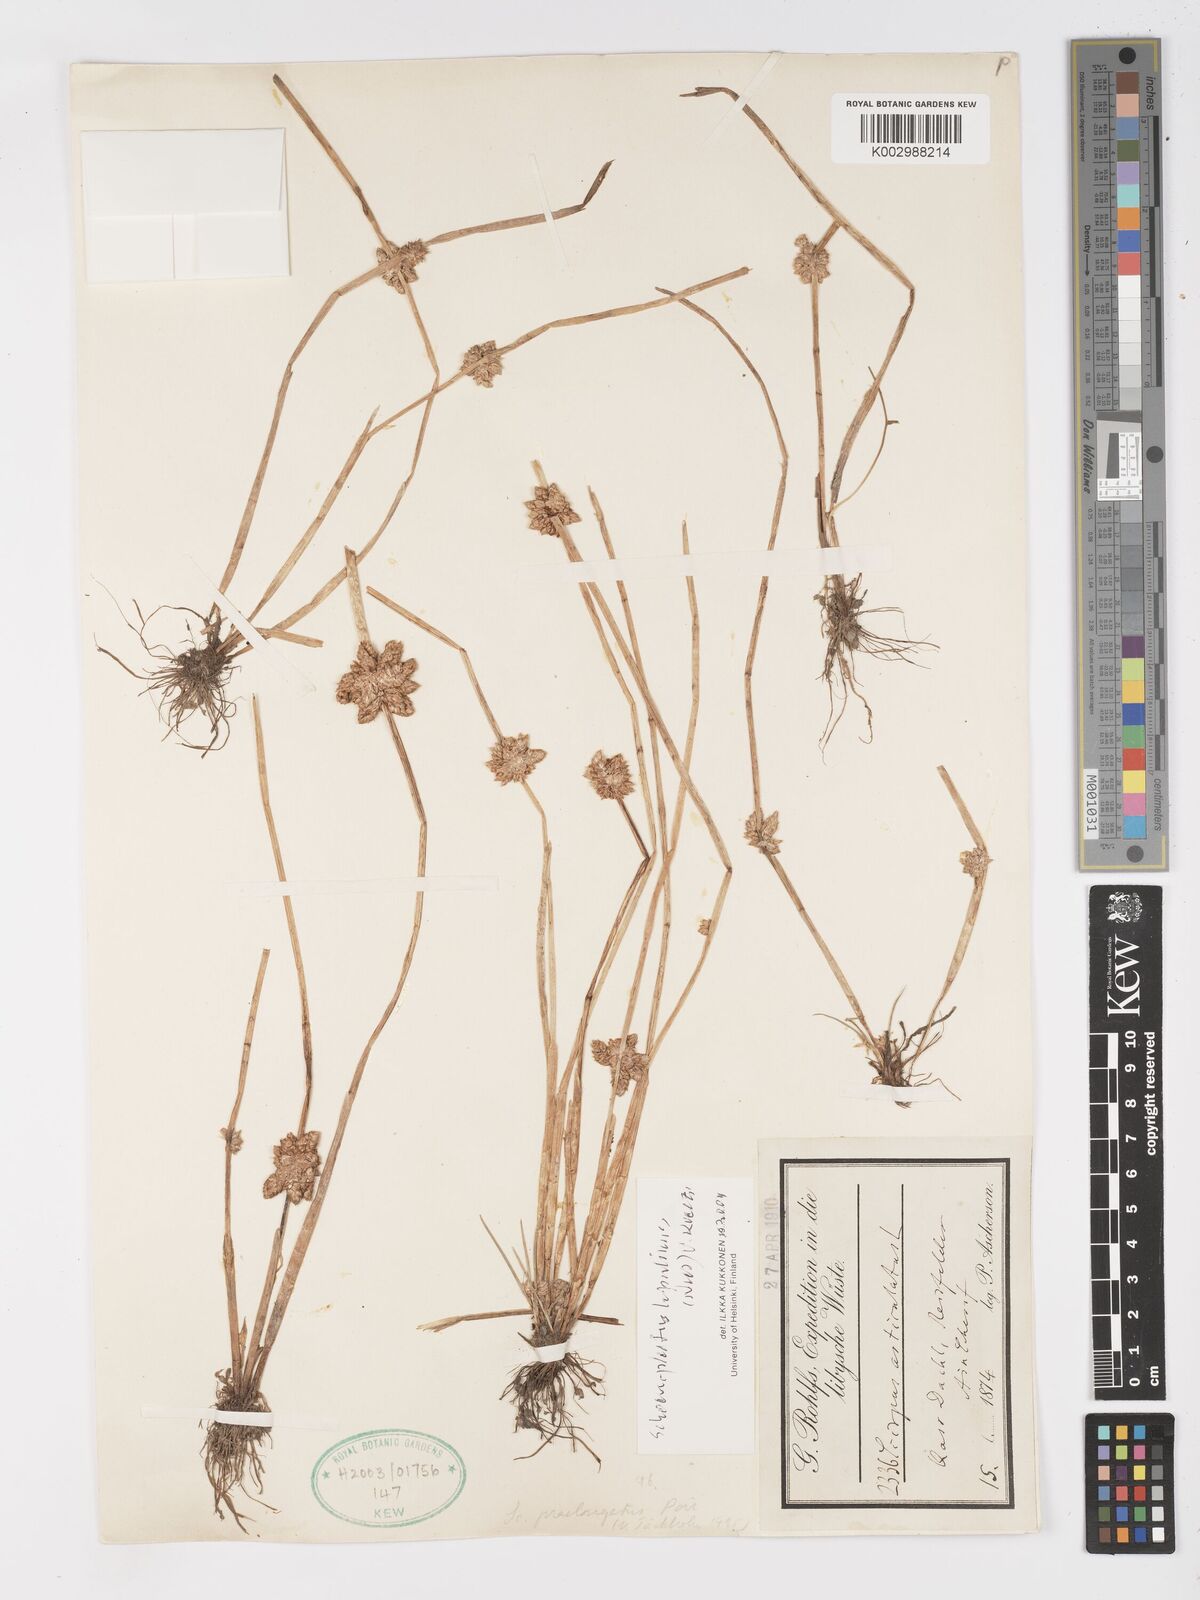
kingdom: Plantae
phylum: Tracheophyta
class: Liliopsida
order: Poales
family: Cyperaceae
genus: Schoenoplectiella
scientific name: Schoenoplectiella roylei
